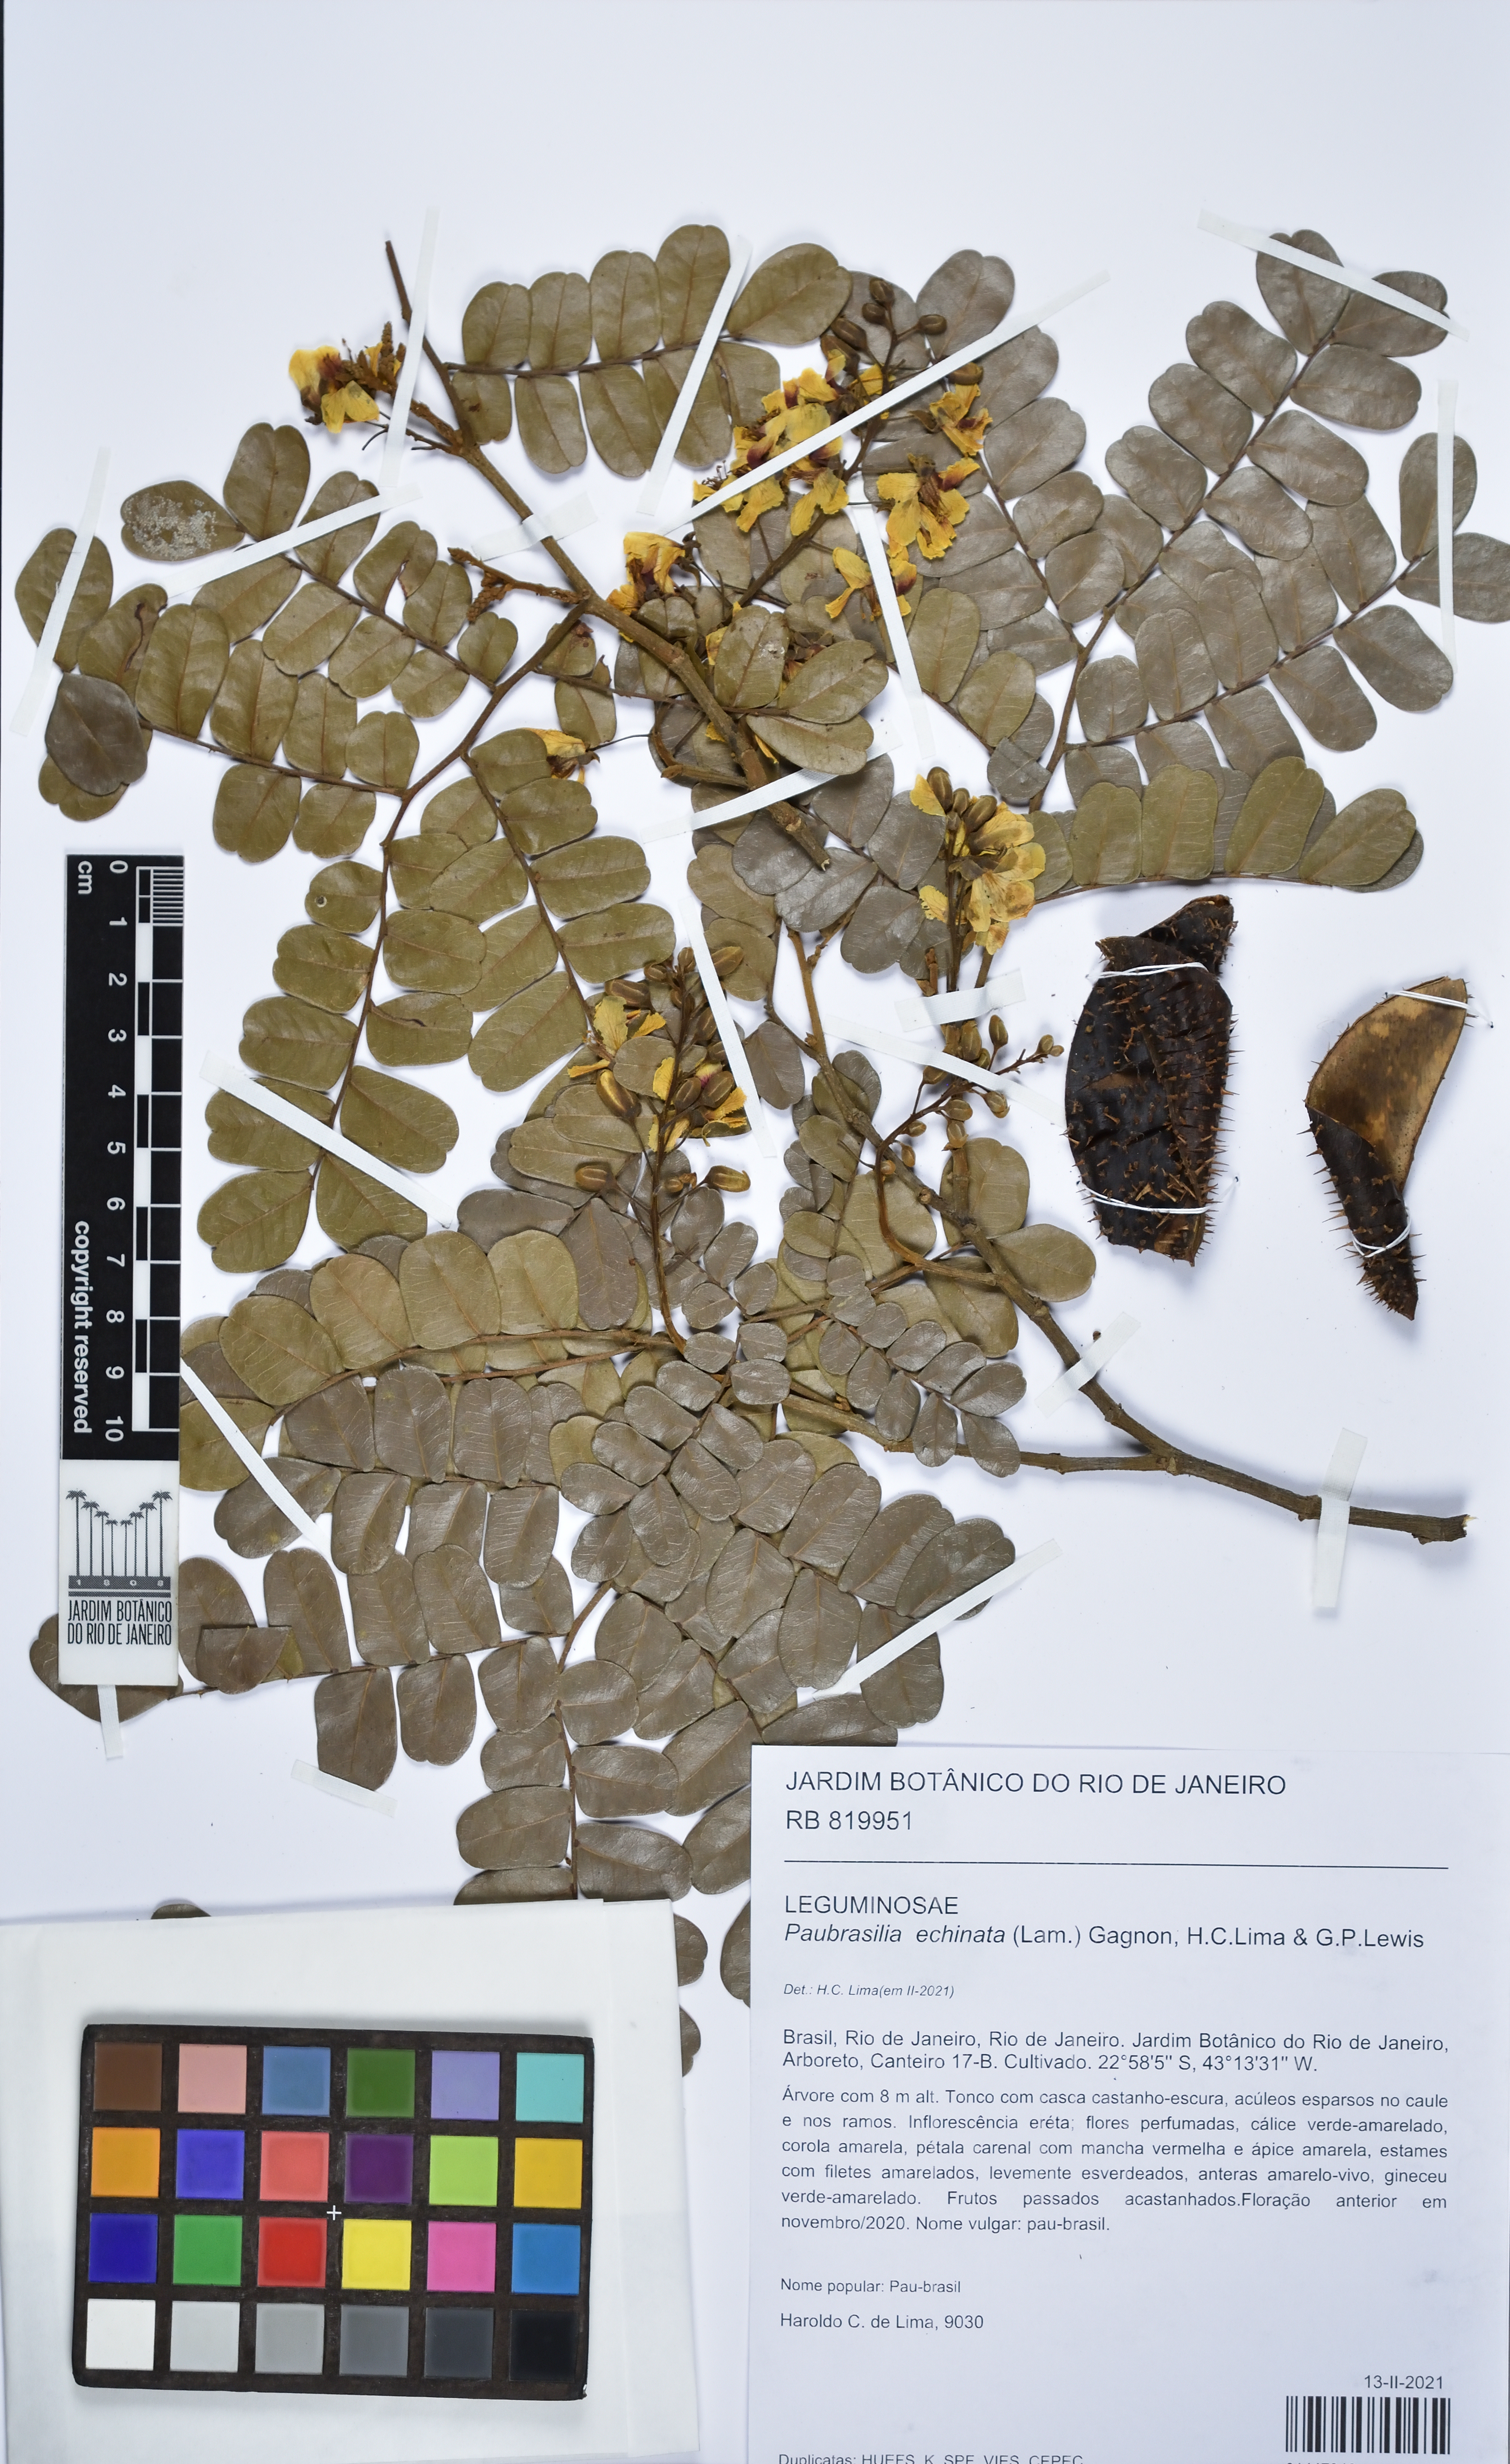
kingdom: Plantae
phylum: Tracheophyta
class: Magnoliopsida
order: Fabales
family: Fabaceae
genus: Paubrasilia
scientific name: Paubrasilia echinata
